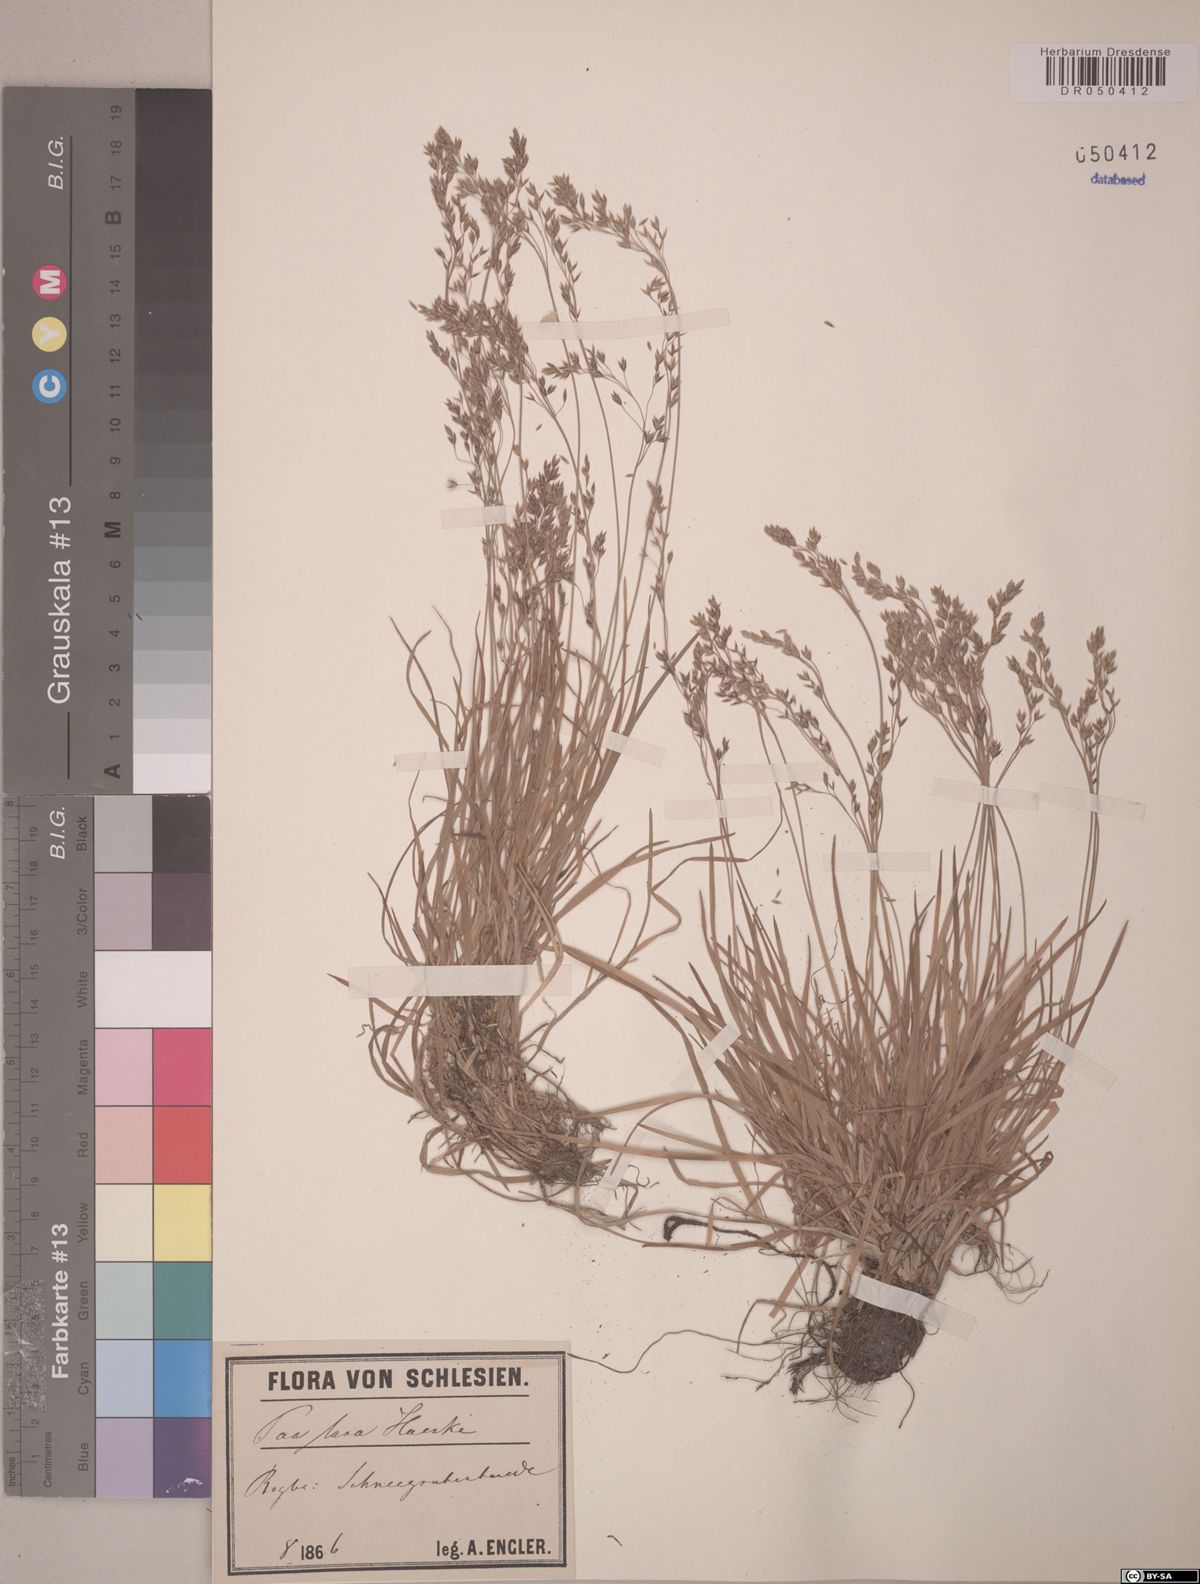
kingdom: Plantae
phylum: Tracheophyta
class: Liliopsida
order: Poales
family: Poaceae
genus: Poa
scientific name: Poa laxa
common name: Lax bluegrass
